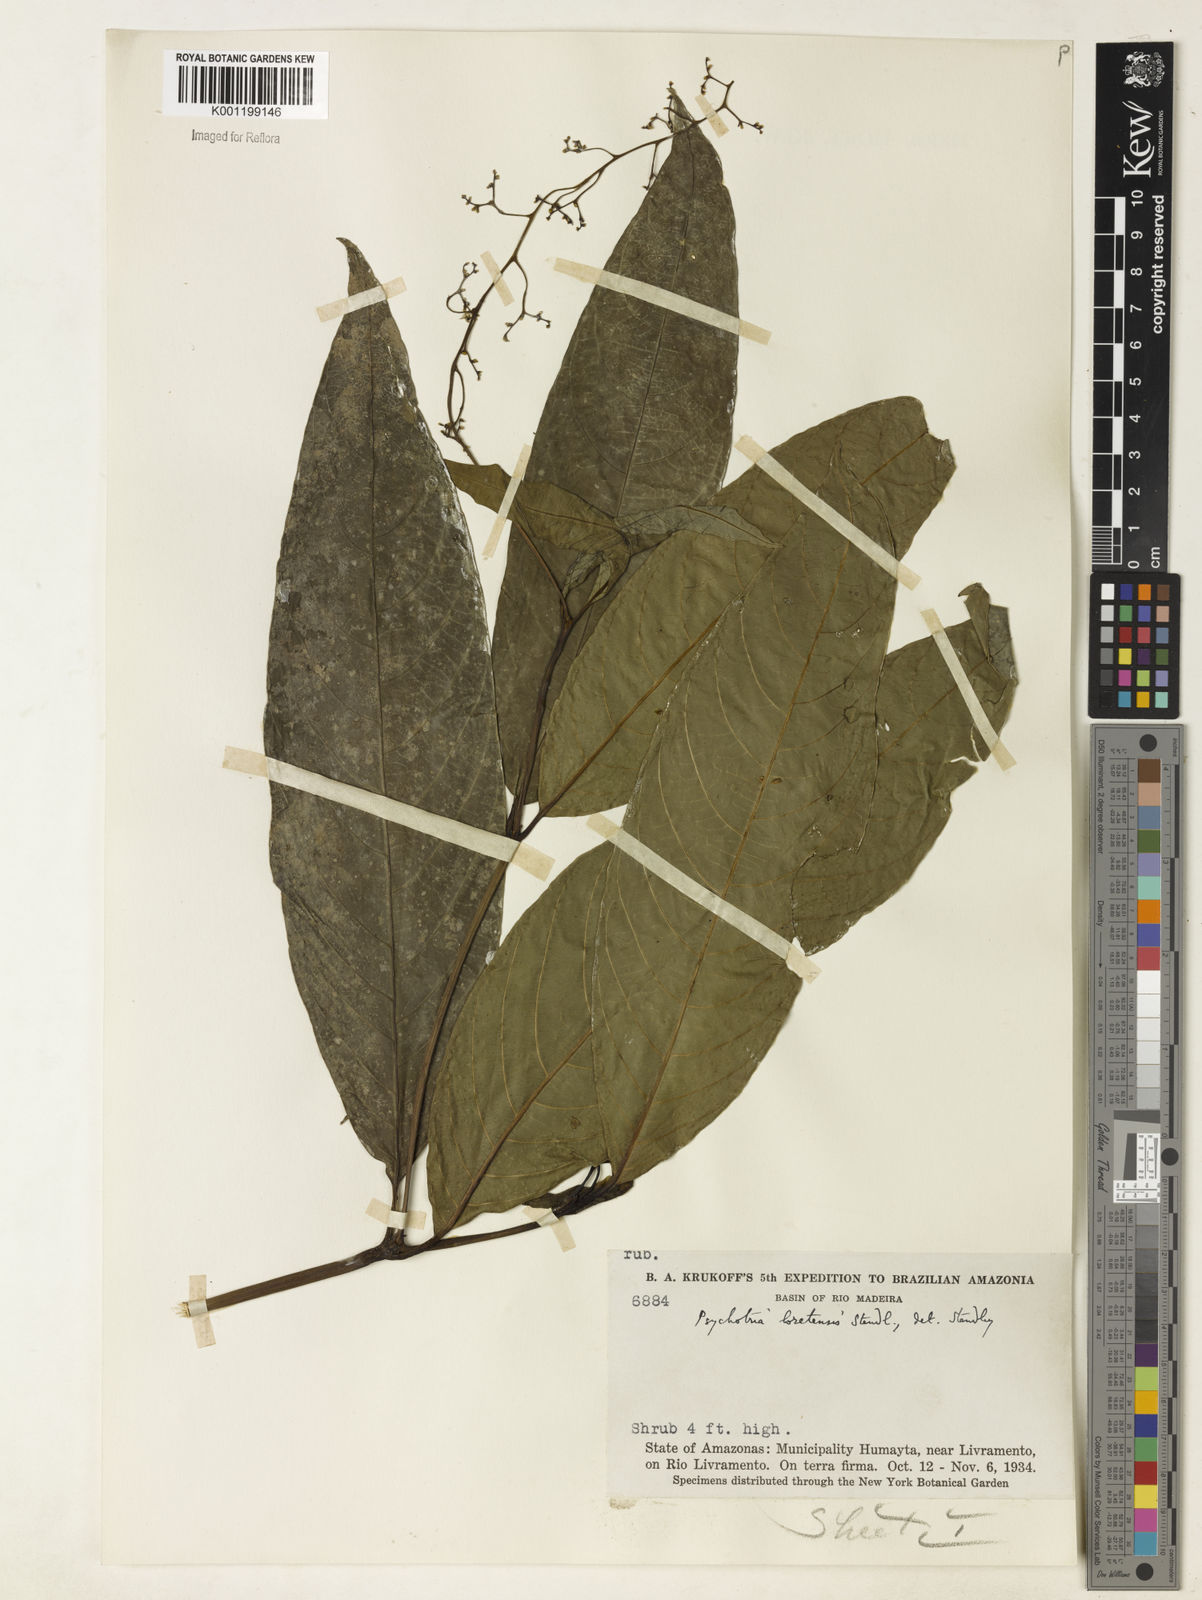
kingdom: Plantae
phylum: Tracheophyta
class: Magnoliopsida
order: Gentianales
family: Rubiaceae
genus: Palicourea
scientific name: Palicourea longicuspis
